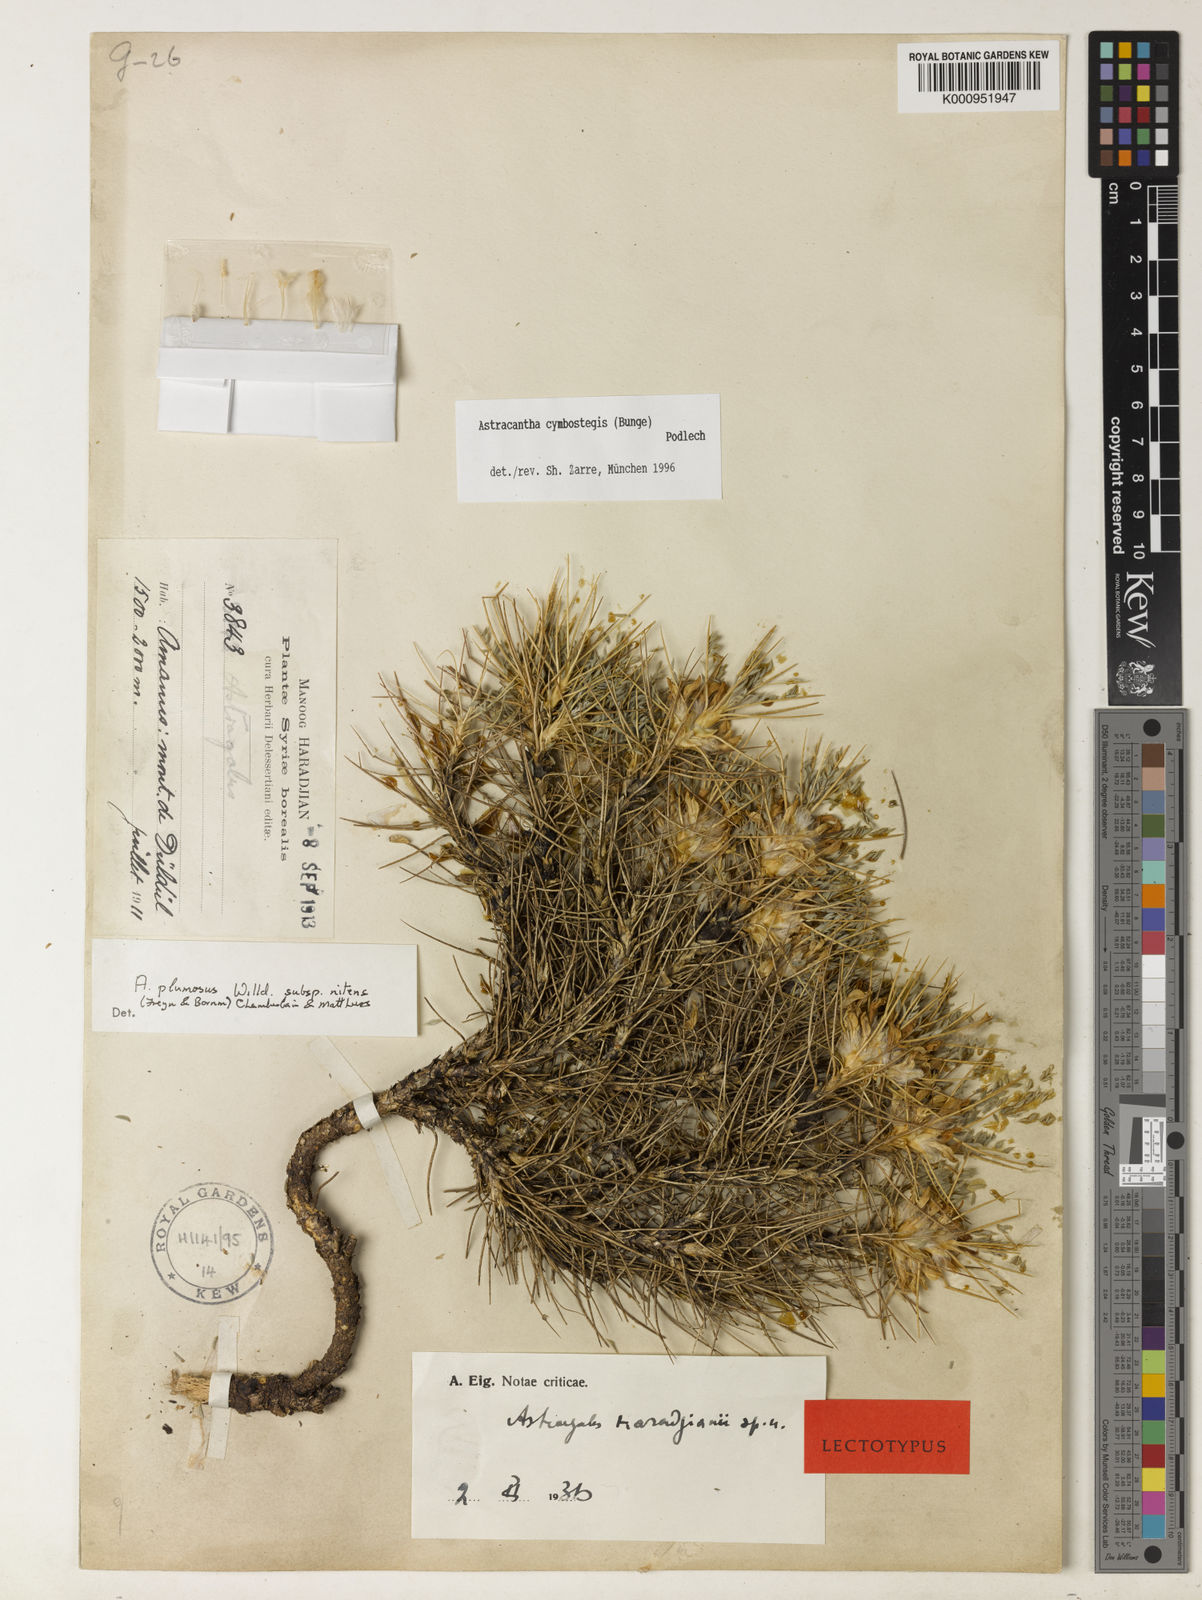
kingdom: Plantae
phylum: Tracheophyta
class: Magnoliopsida
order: Fabales
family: Fabaceae
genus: Astragalus
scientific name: Astragalus cymbostegis
